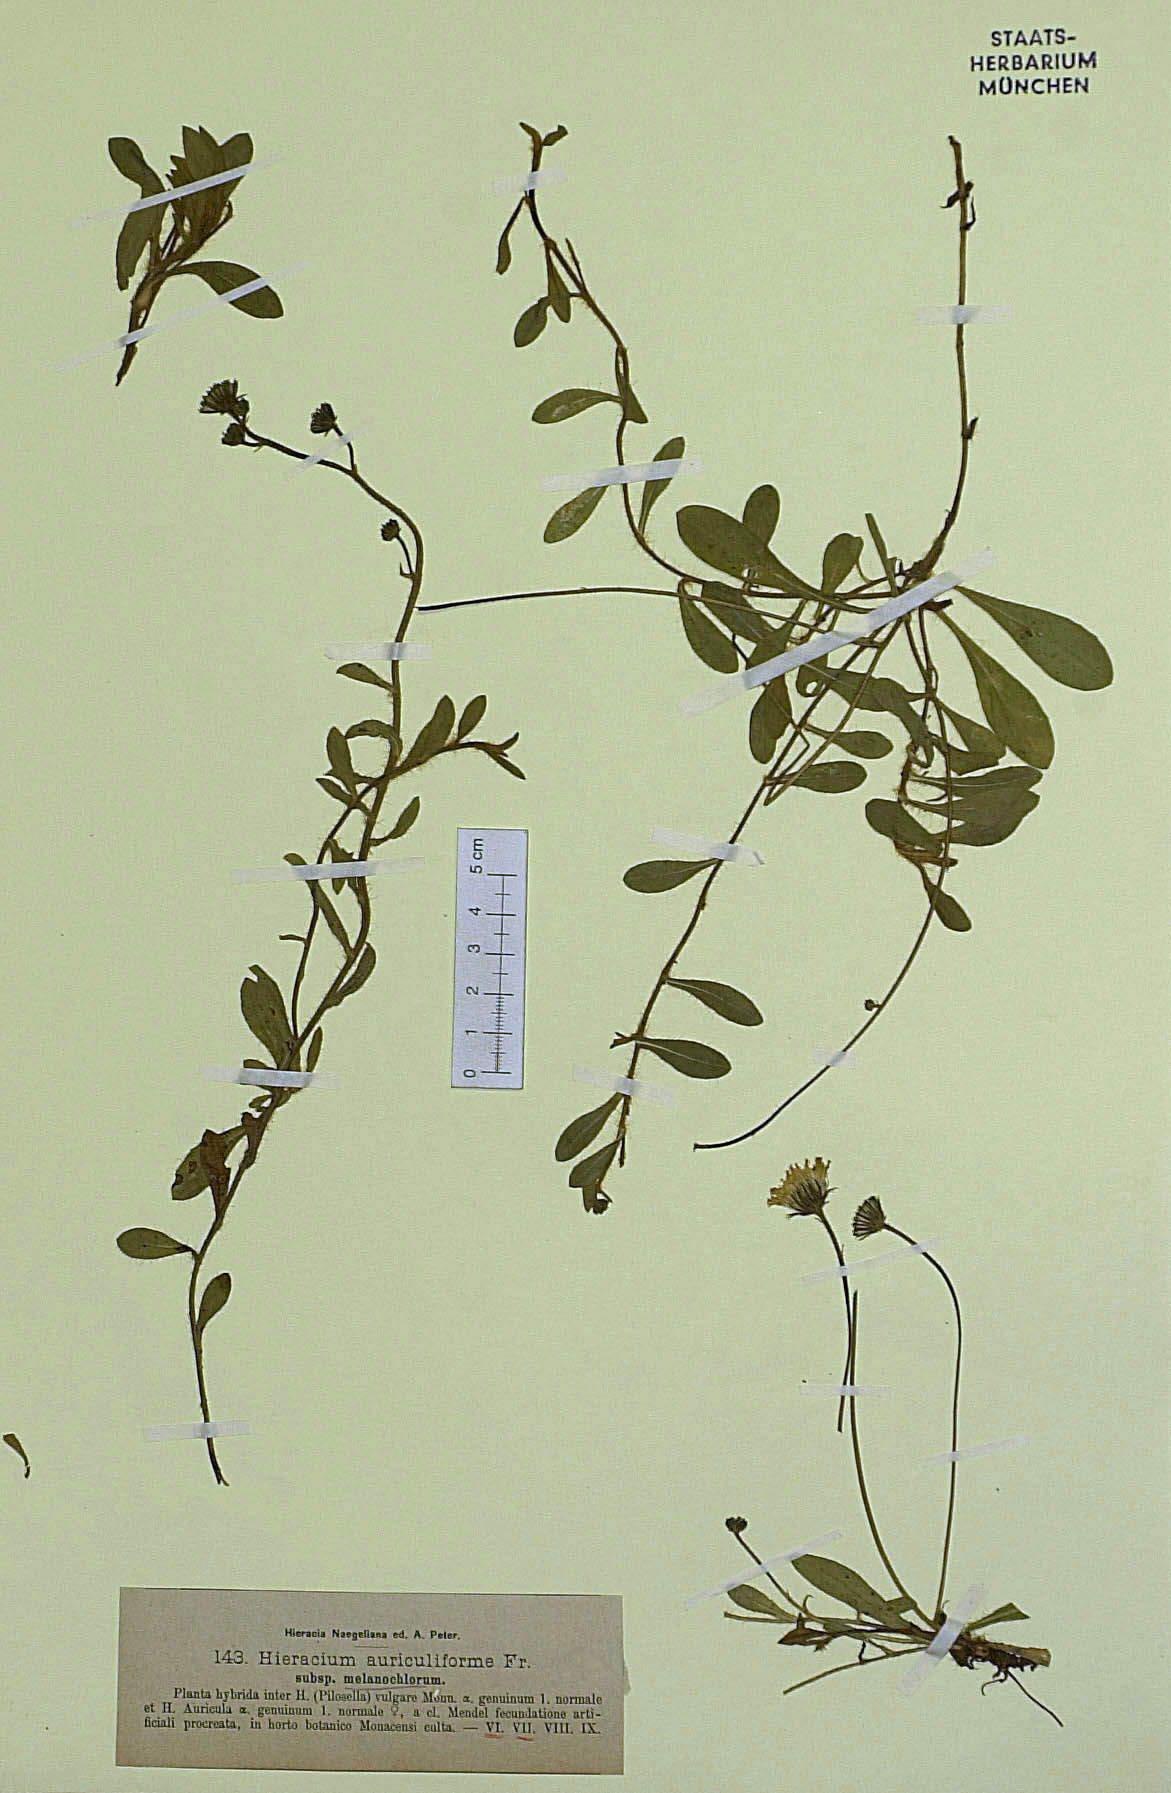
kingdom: Plantae
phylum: Tracheophyta
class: Magnoliopsida
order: Asterales
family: Asteraceae
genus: Pilosella
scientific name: Pilosella schultesii
